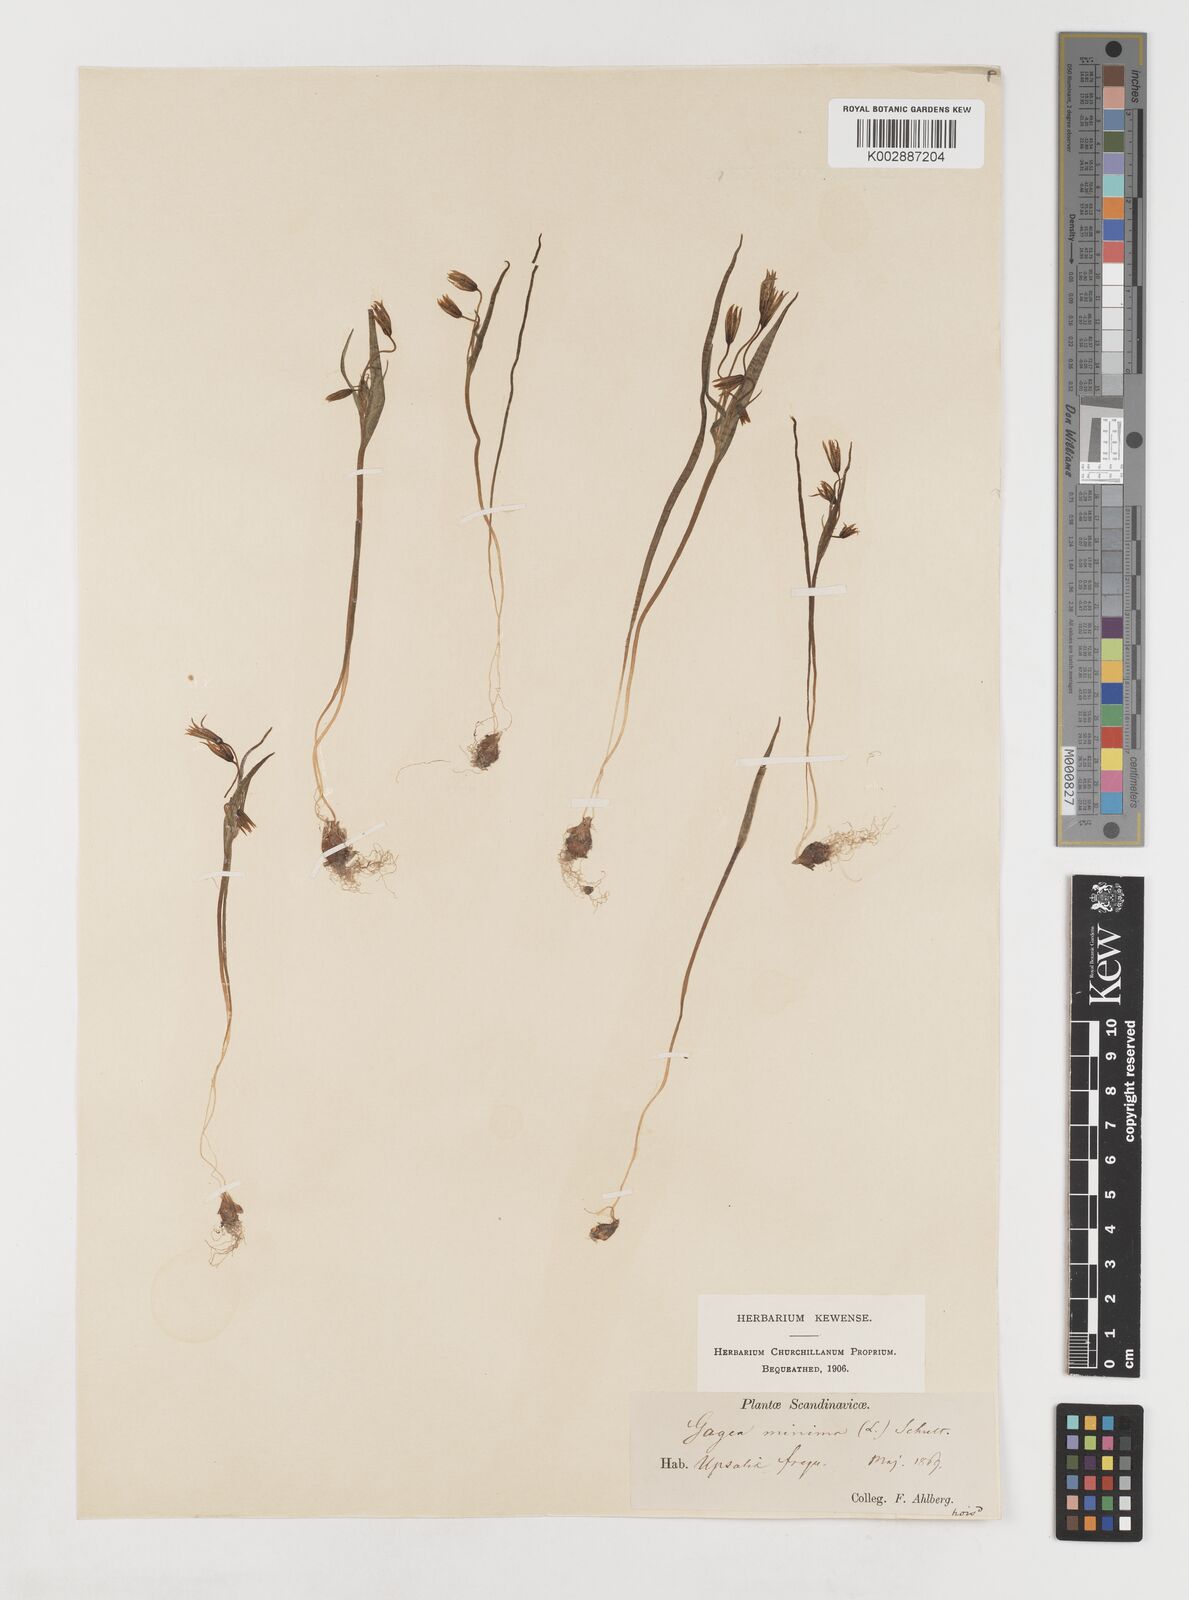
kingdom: Plantae
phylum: Tracheophyta
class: Liliopsida
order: Liliales
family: Liliaceae
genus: Gagea
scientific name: Gagea minima
